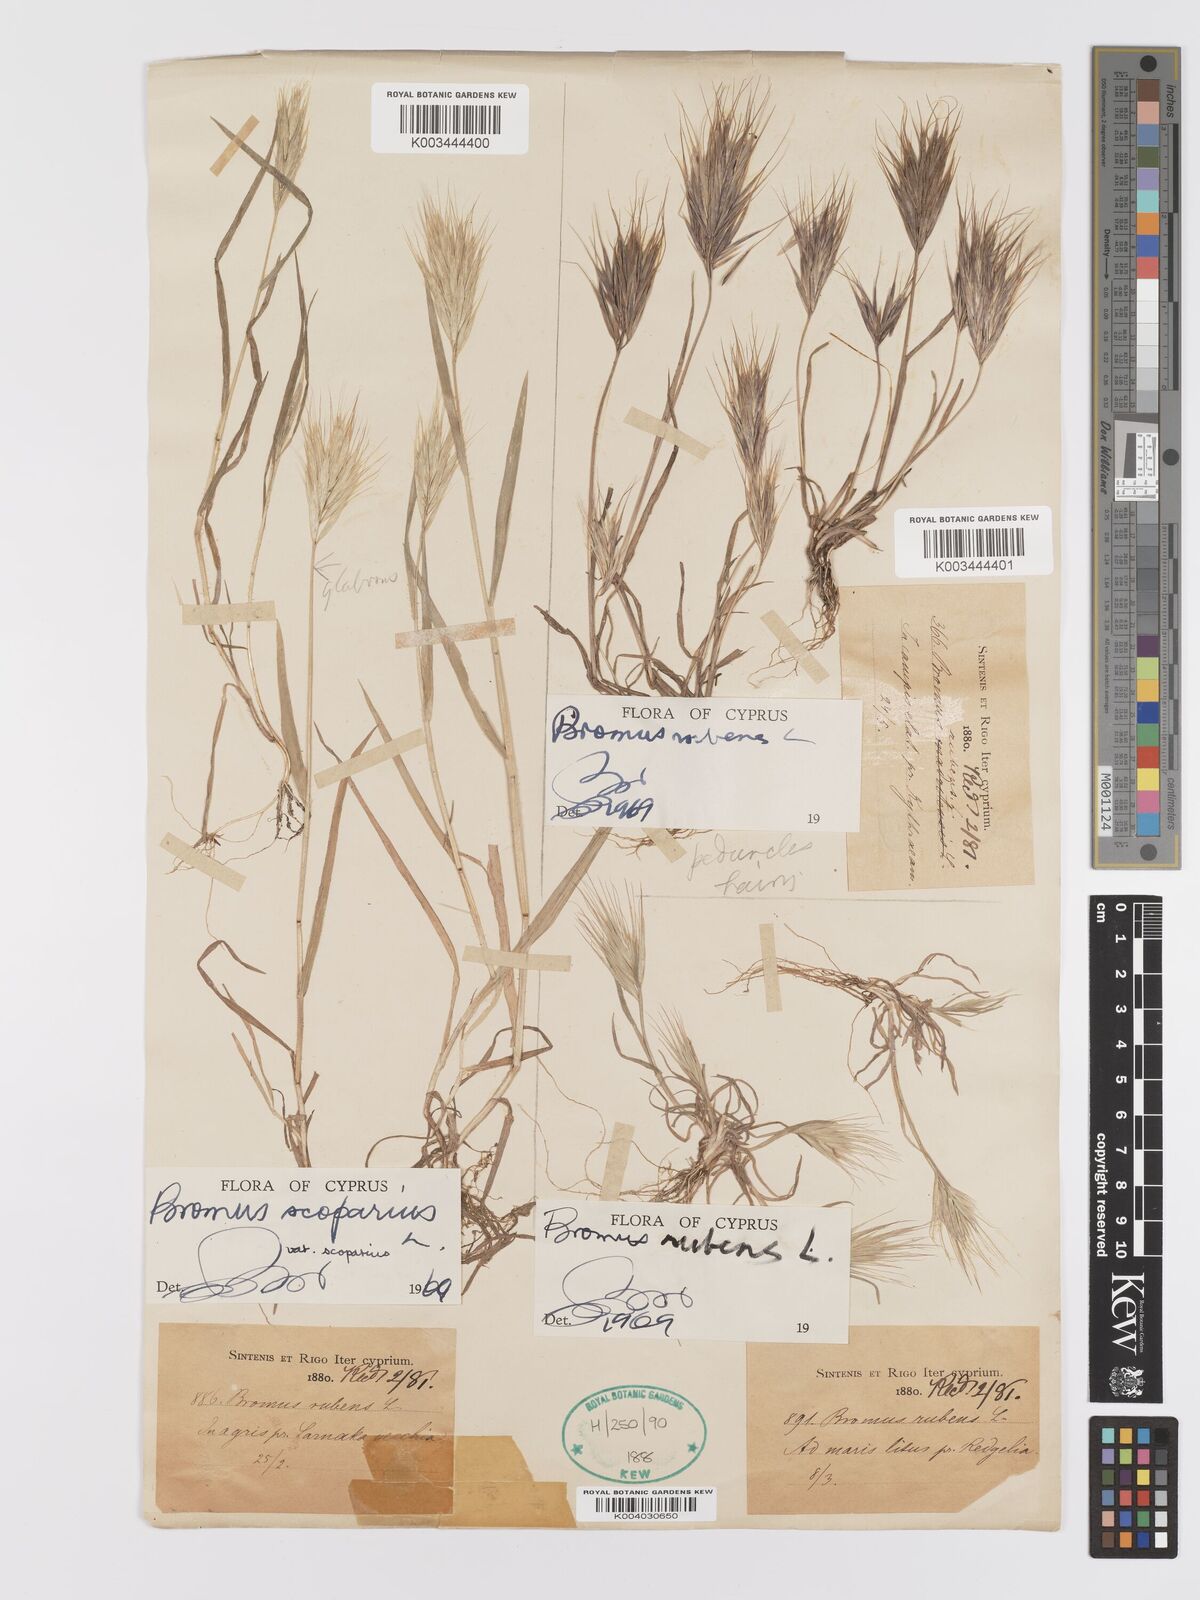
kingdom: Plantae
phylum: Tracheophyta
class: Liliopsida
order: Poales
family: Poaceae
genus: Bromus
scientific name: Bromus rubens
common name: Red brome
